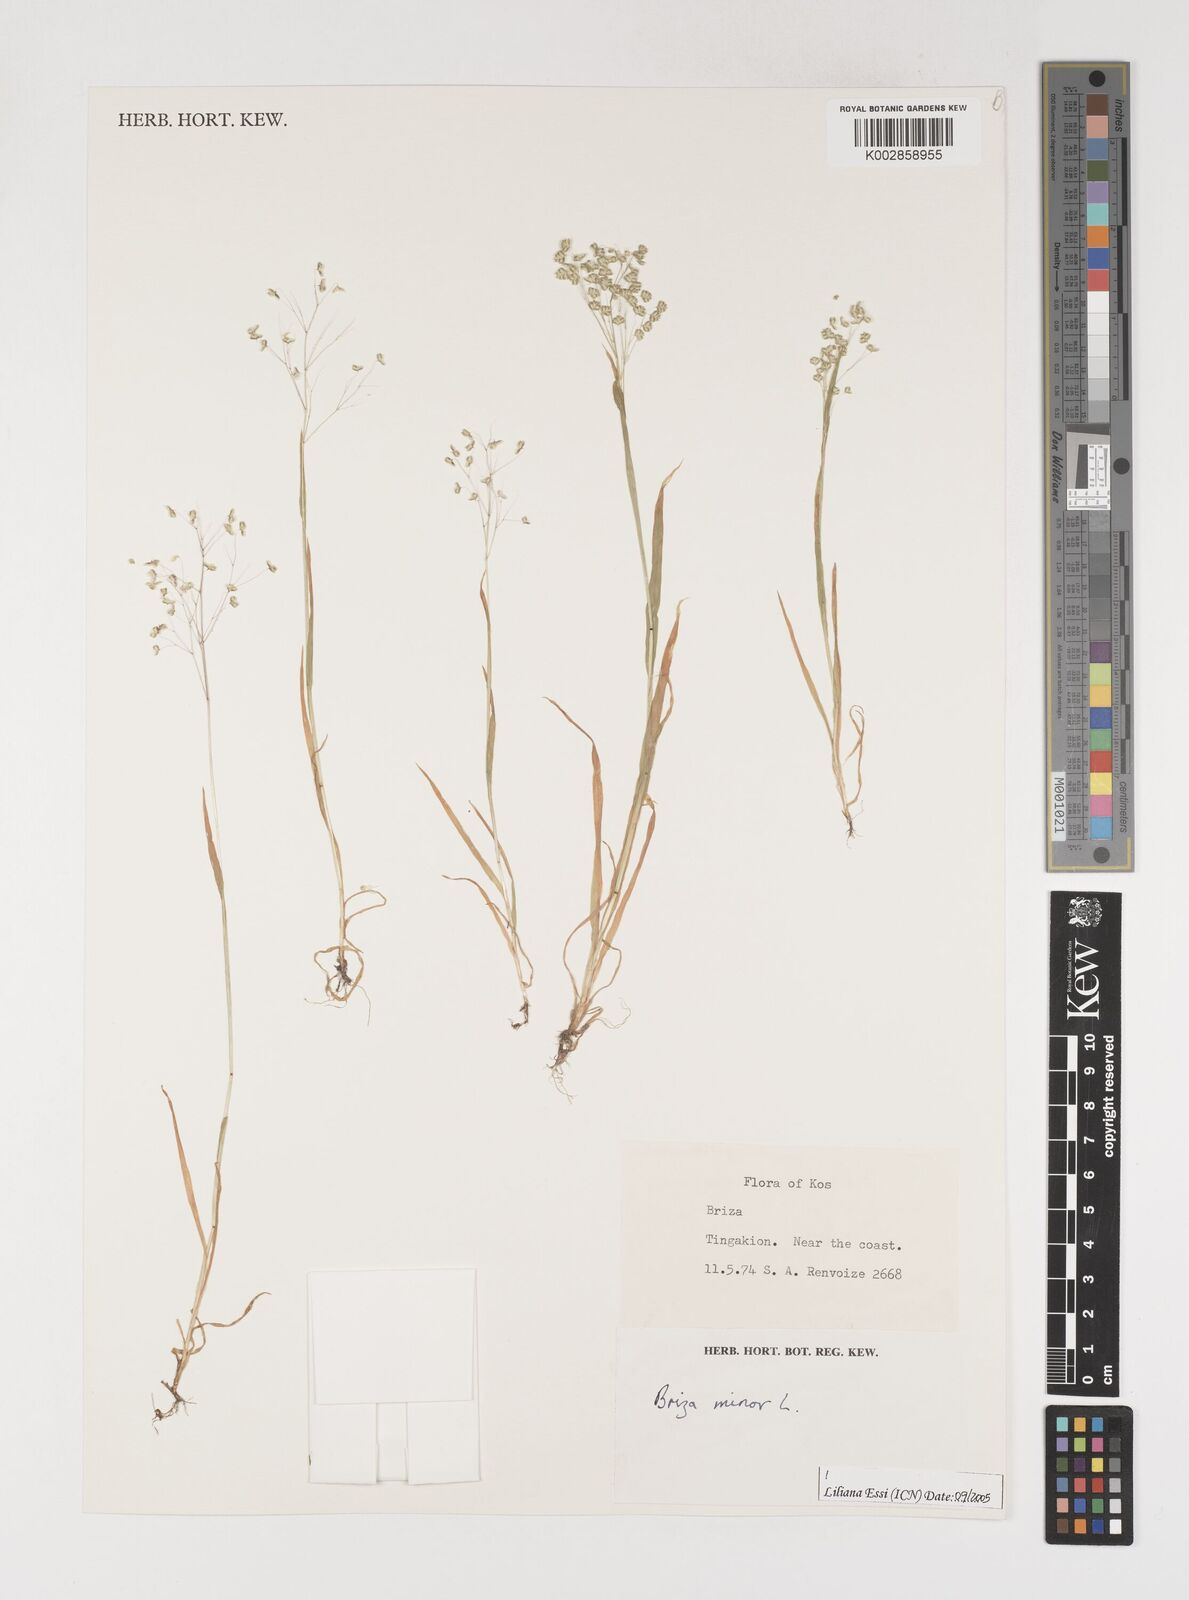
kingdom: Plantae
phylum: Tracheophyta
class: Liliopsida
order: Poales
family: Poaceae
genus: Briza
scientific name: Briza minor
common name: Lesser quaking-grass
